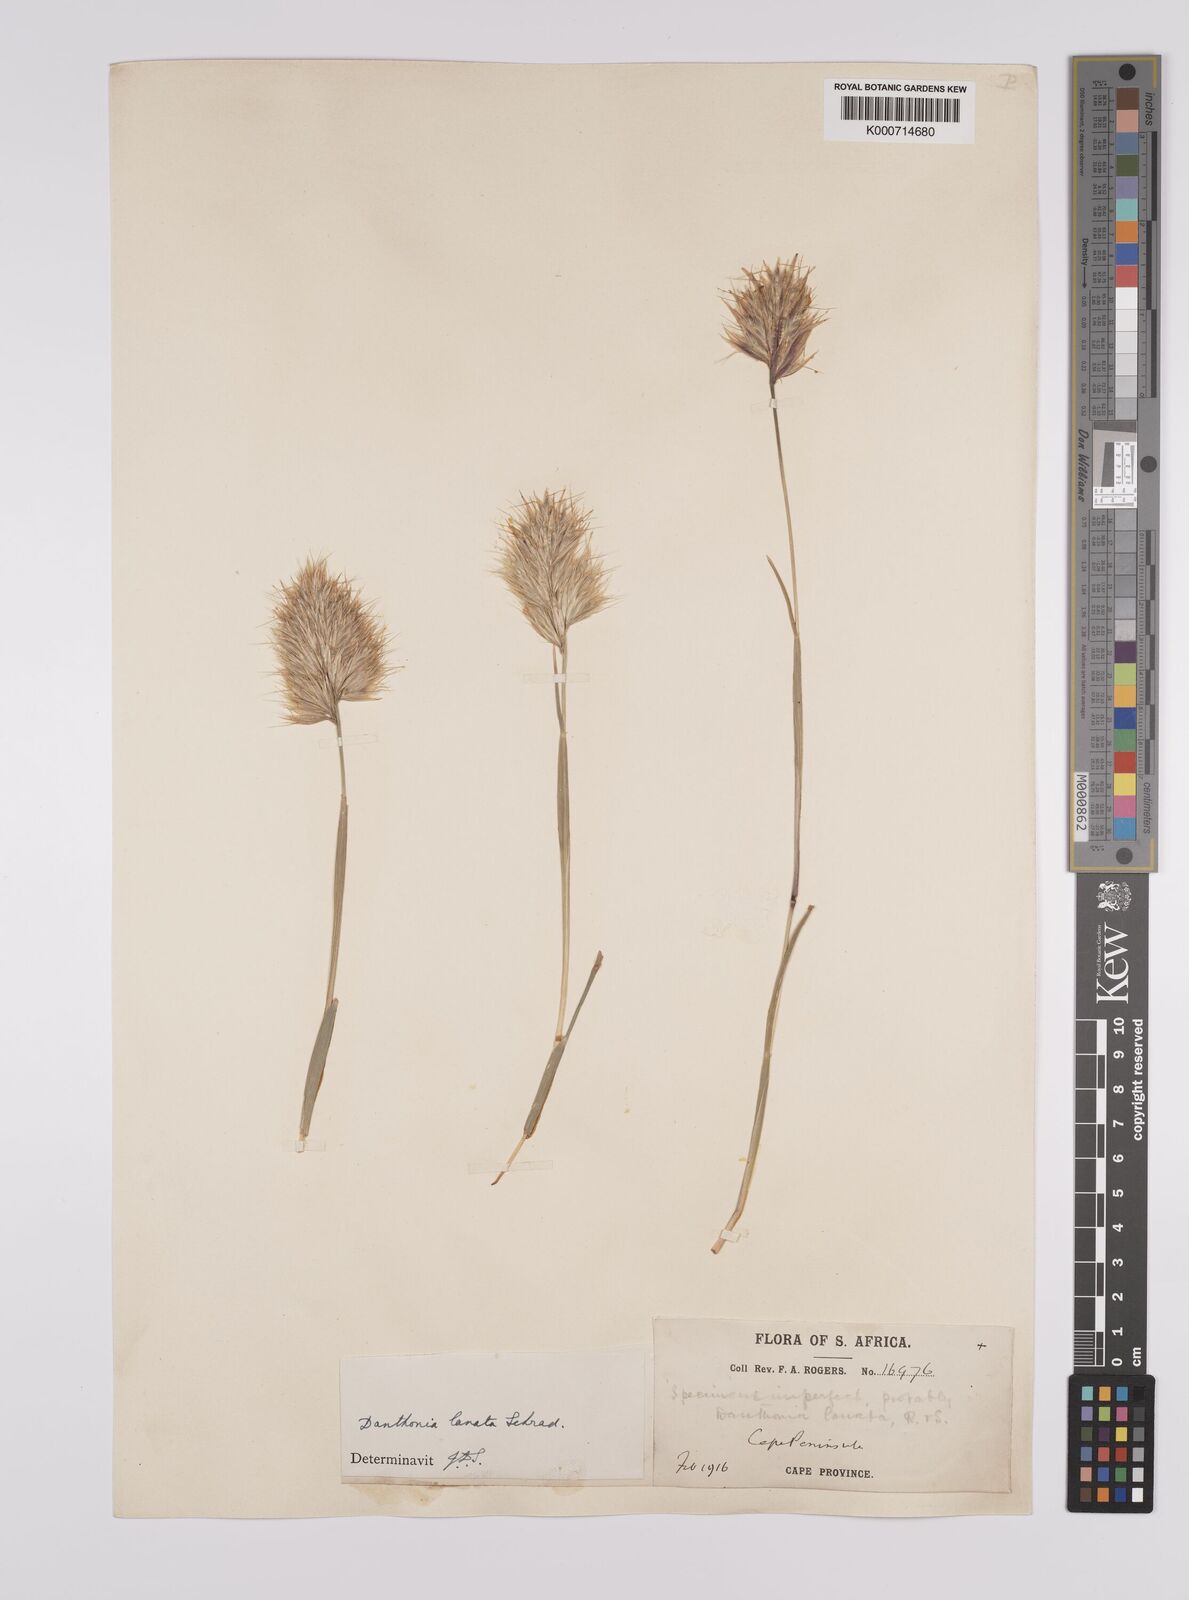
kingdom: Plantae
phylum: Tracheophyta
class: Liliopsida
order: Poales
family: Poaceae
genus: Rytidosperma
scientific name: Rytidosperma
